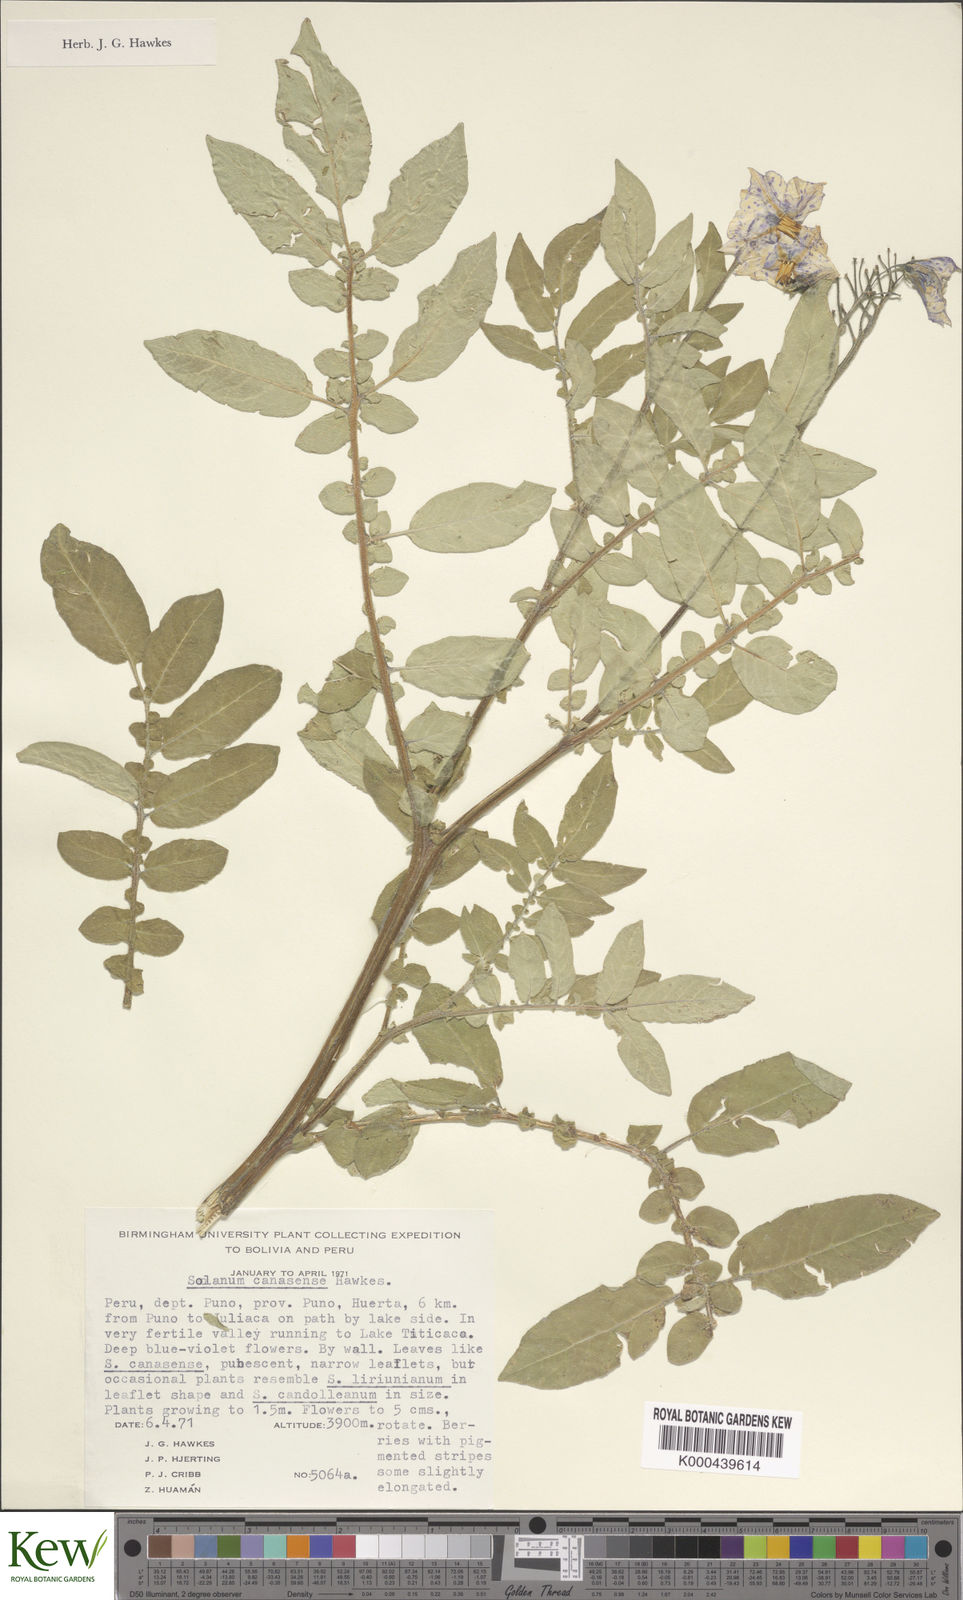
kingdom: Plantae
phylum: Tracheophyta
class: Magnoliopsida
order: Solanales
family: Solanaceae
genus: Solanum
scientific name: Solanum candolleanum
